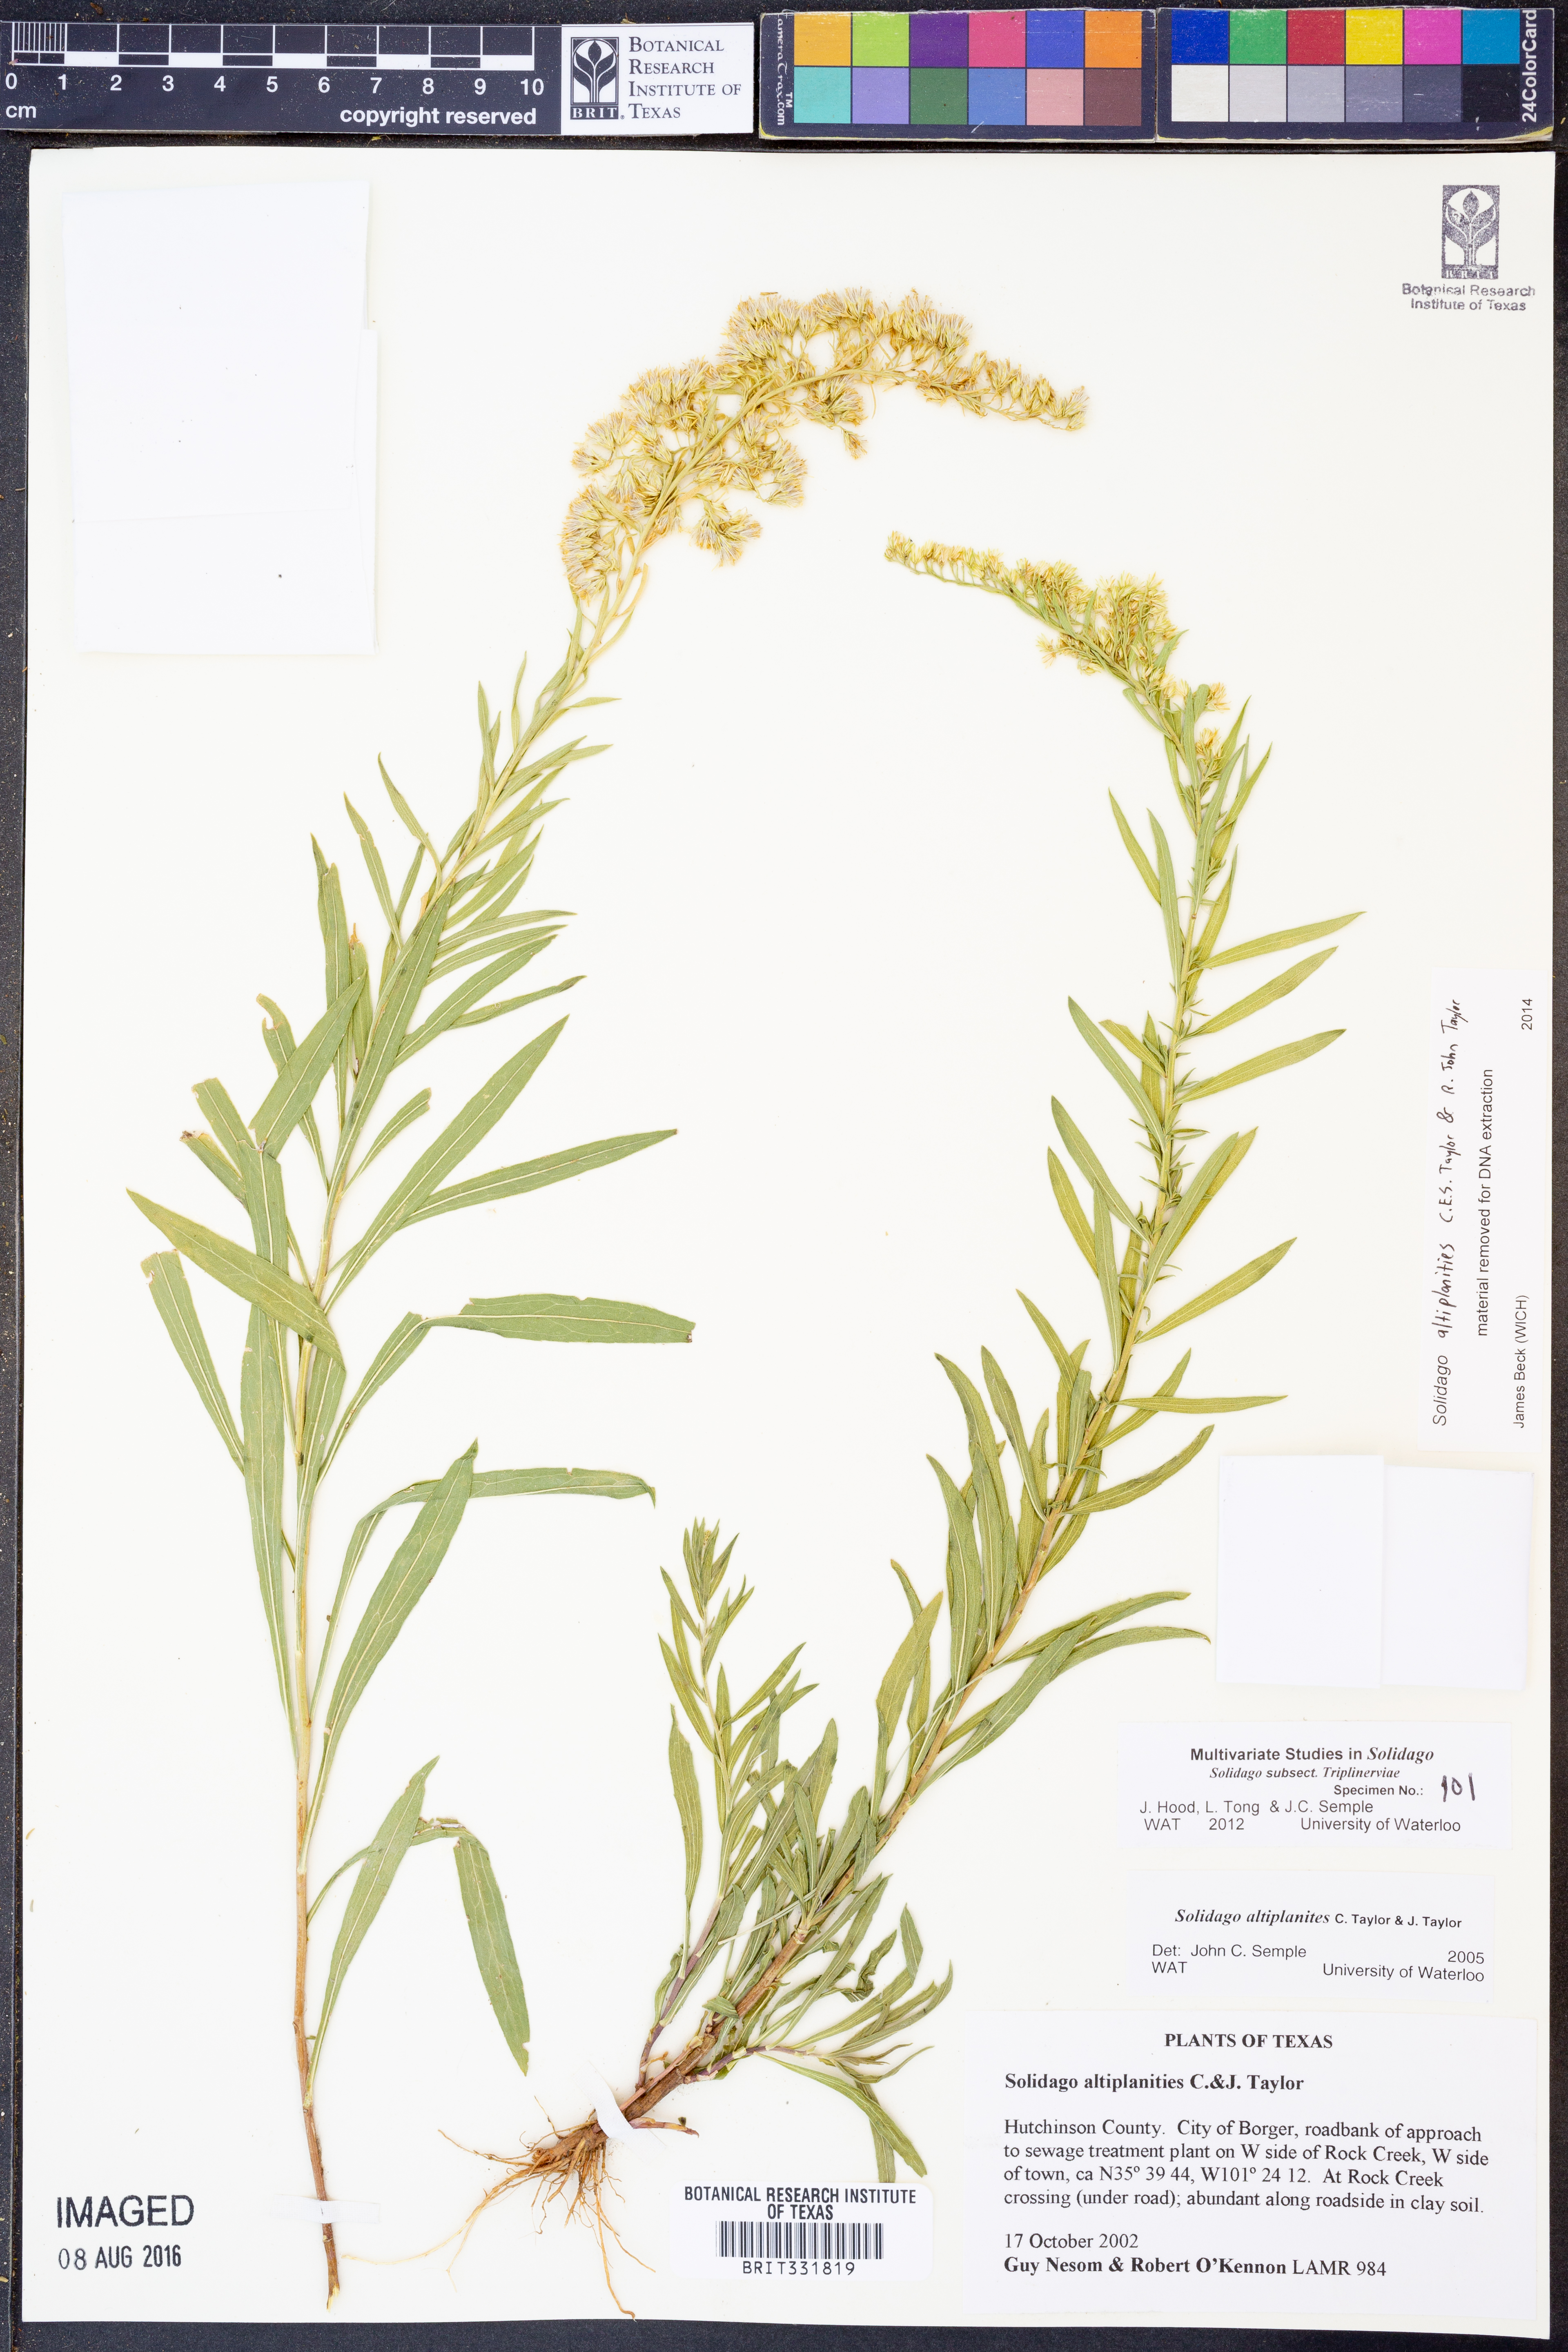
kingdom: Plantae
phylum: Tracheophyta
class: Magnoliopsida
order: Asterales
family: Asteraceae
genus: Solidago
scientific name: Solidago altiplanities
